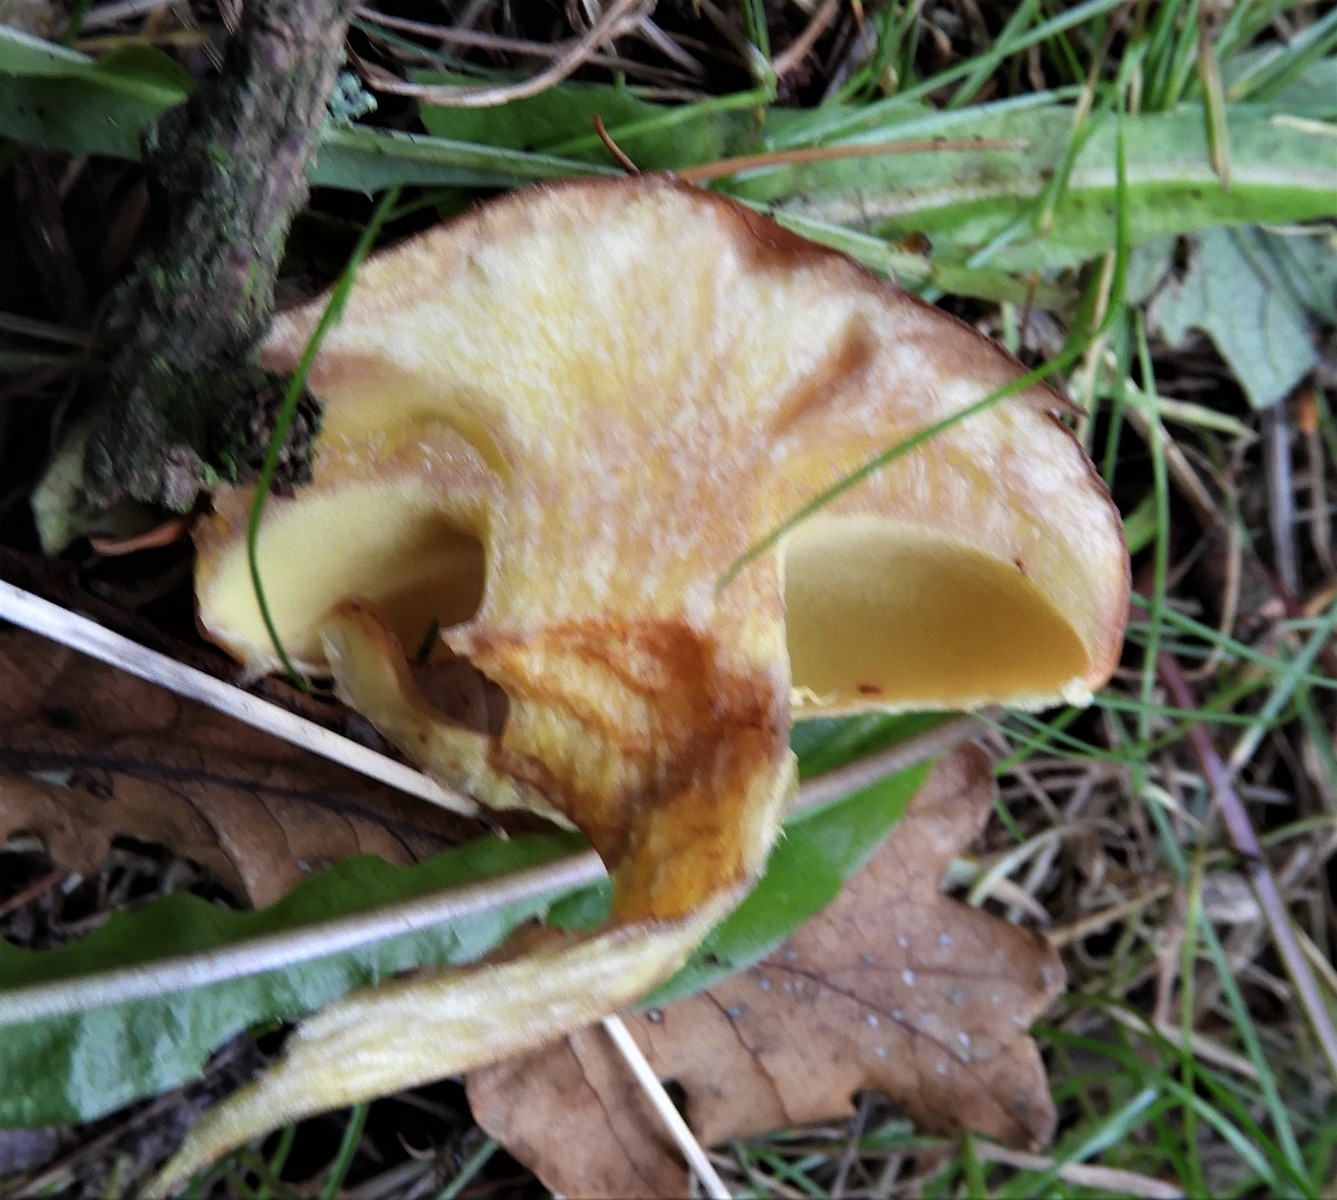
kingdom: Fungi
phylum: Basidiomycota
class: Agaricomycetes
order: Boletales
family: Suillaceae
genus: Suillus
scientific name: Suillus grevillei
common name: lærke-slimrørhat
